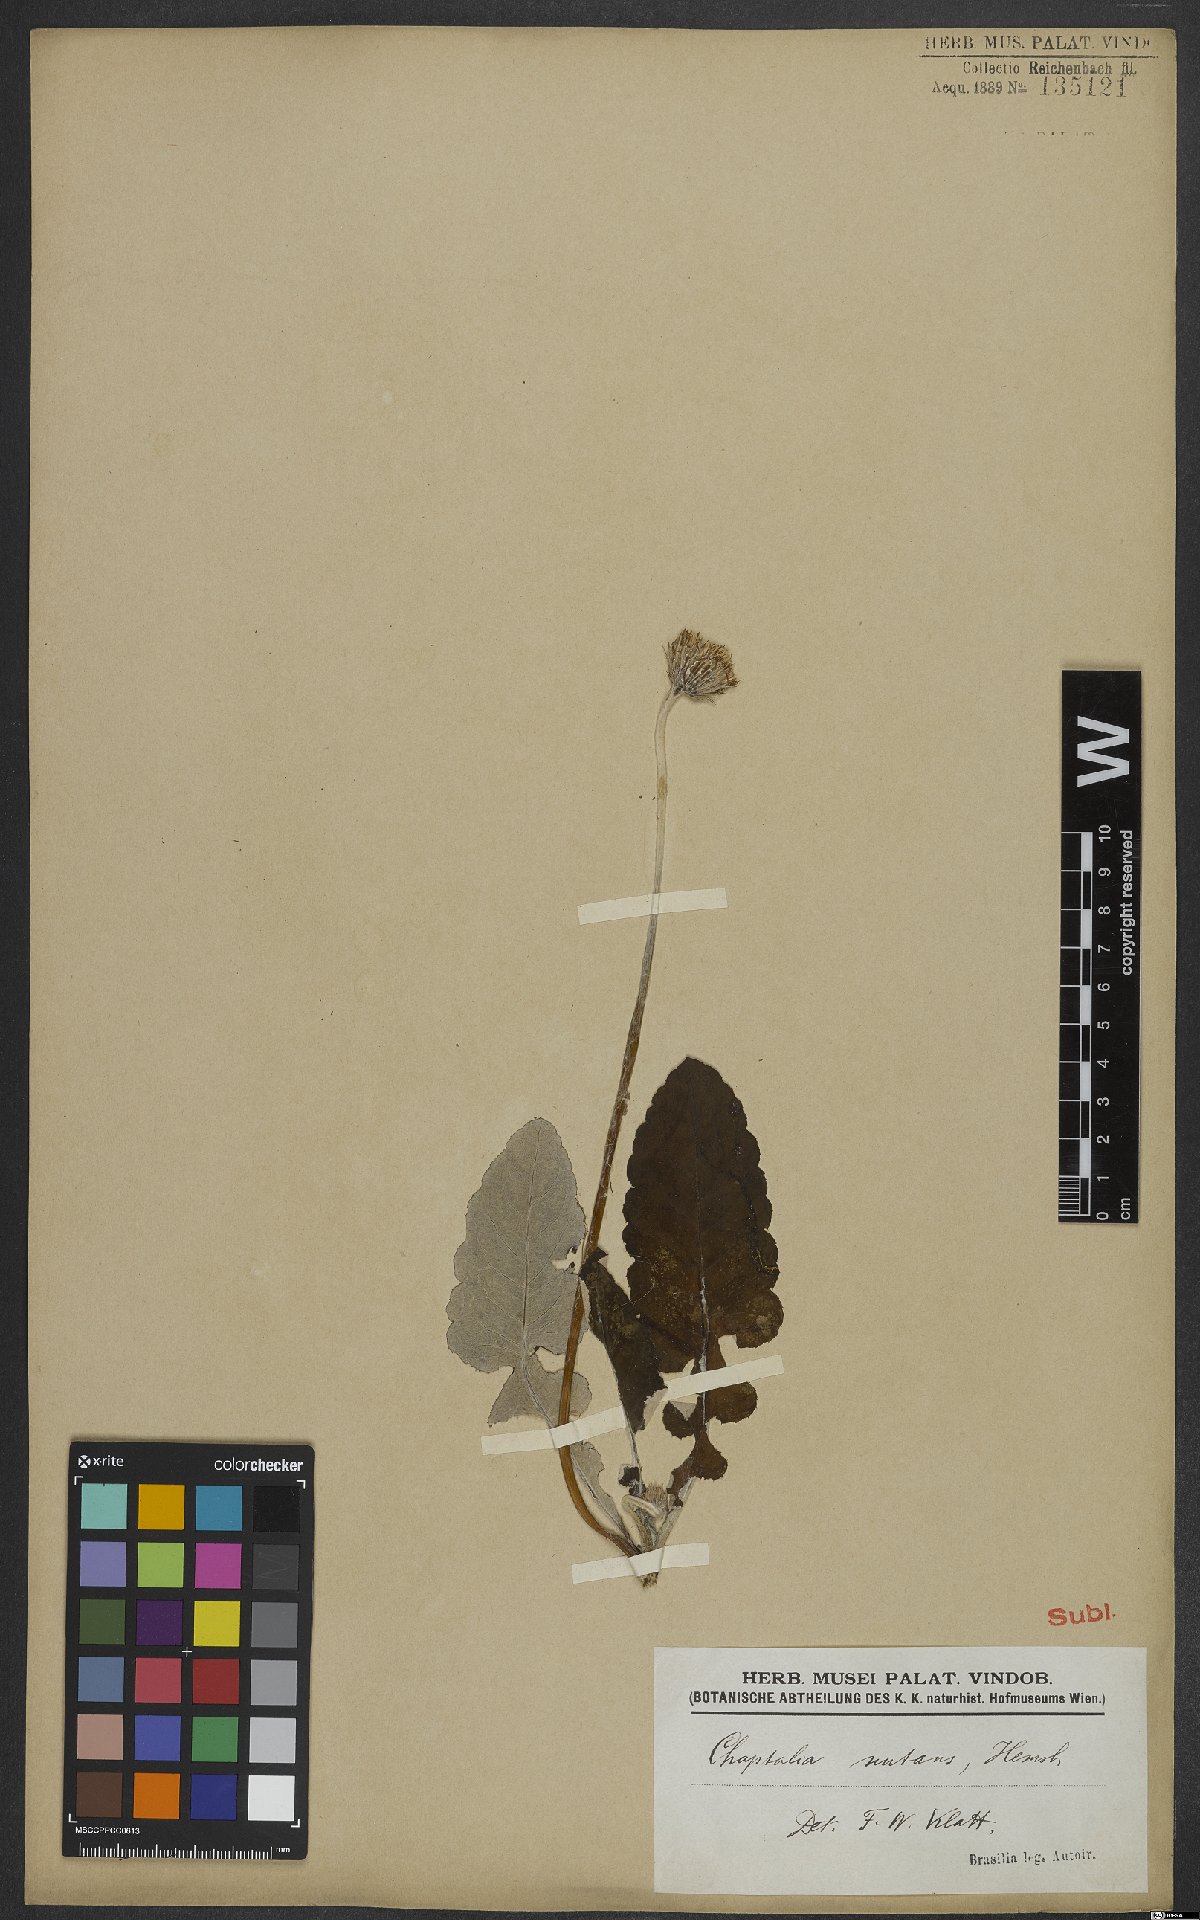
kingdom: Plantae
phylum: Tracheophyta
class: Magnoliopsida
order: Asterales
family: Asteraceae
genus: Chaptalia
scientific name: Chaptalia nutans
